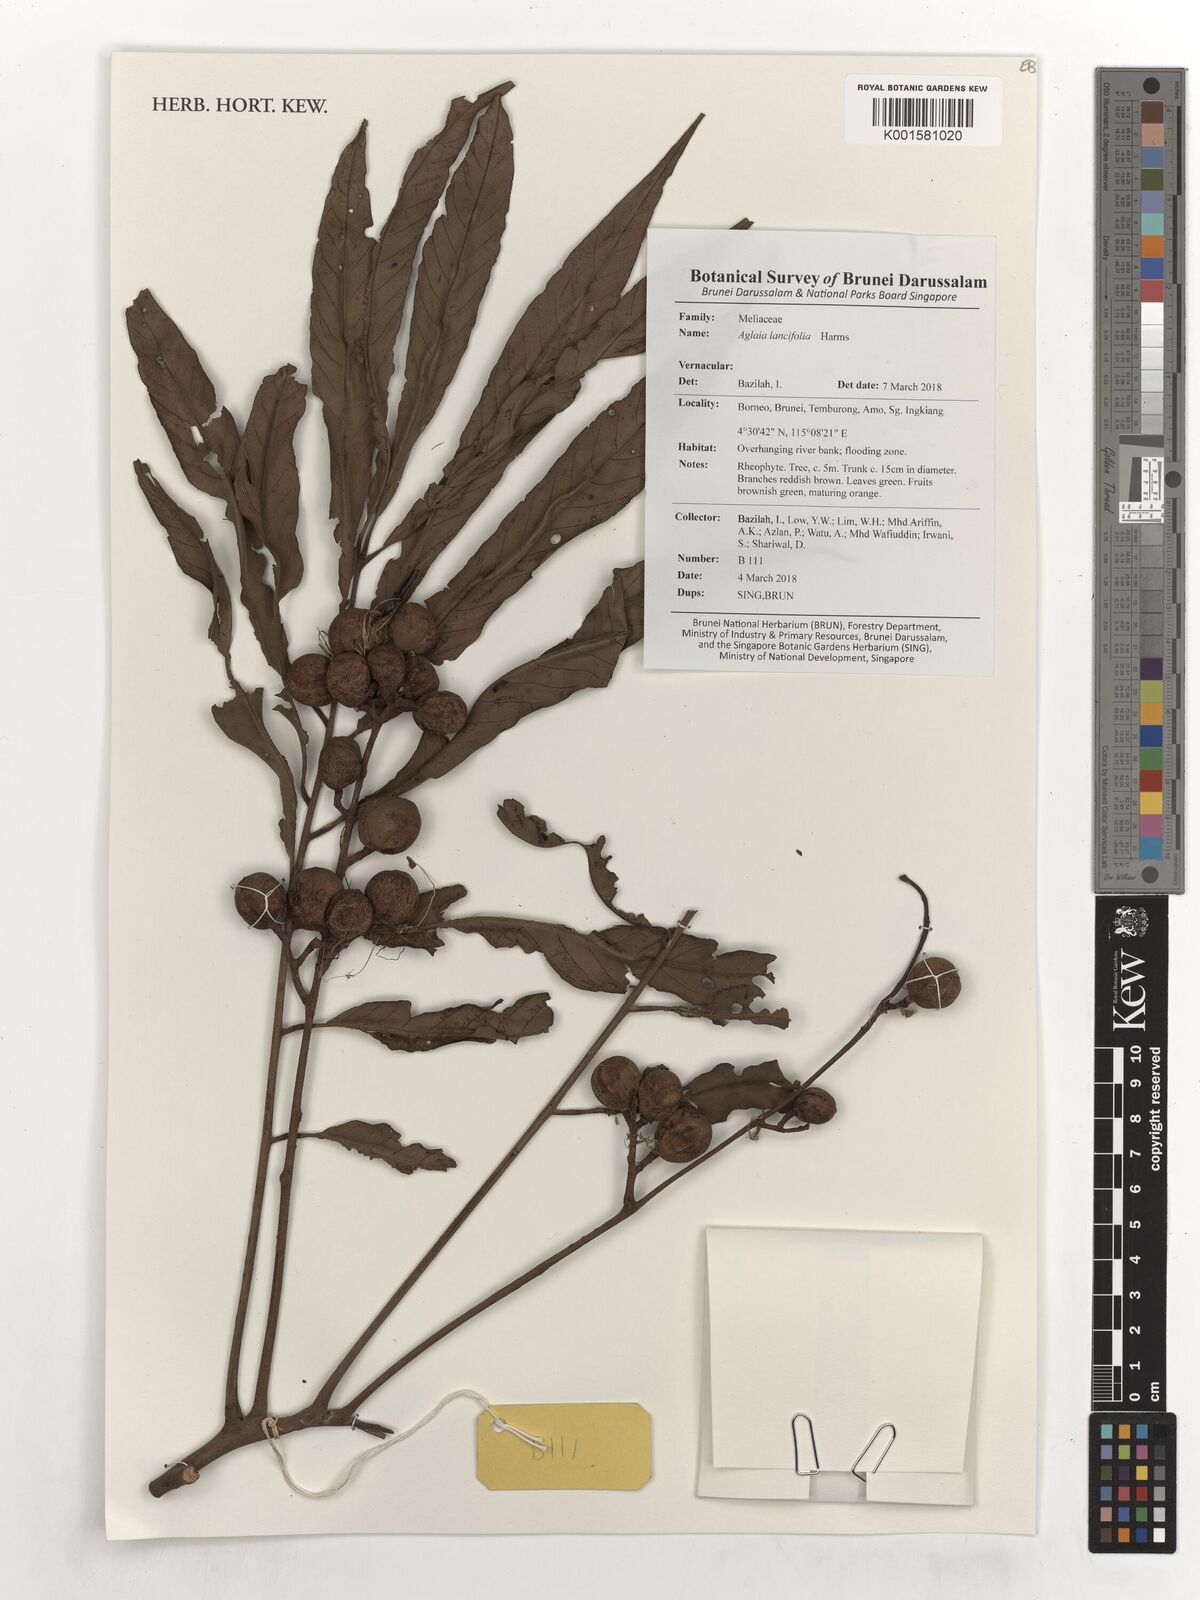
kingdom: Plantae
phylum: Tracheophyta
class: Magnoliopsida
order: Sapindales
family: Meliaceae
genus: Aglaia
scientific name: Aglaia elliptica
